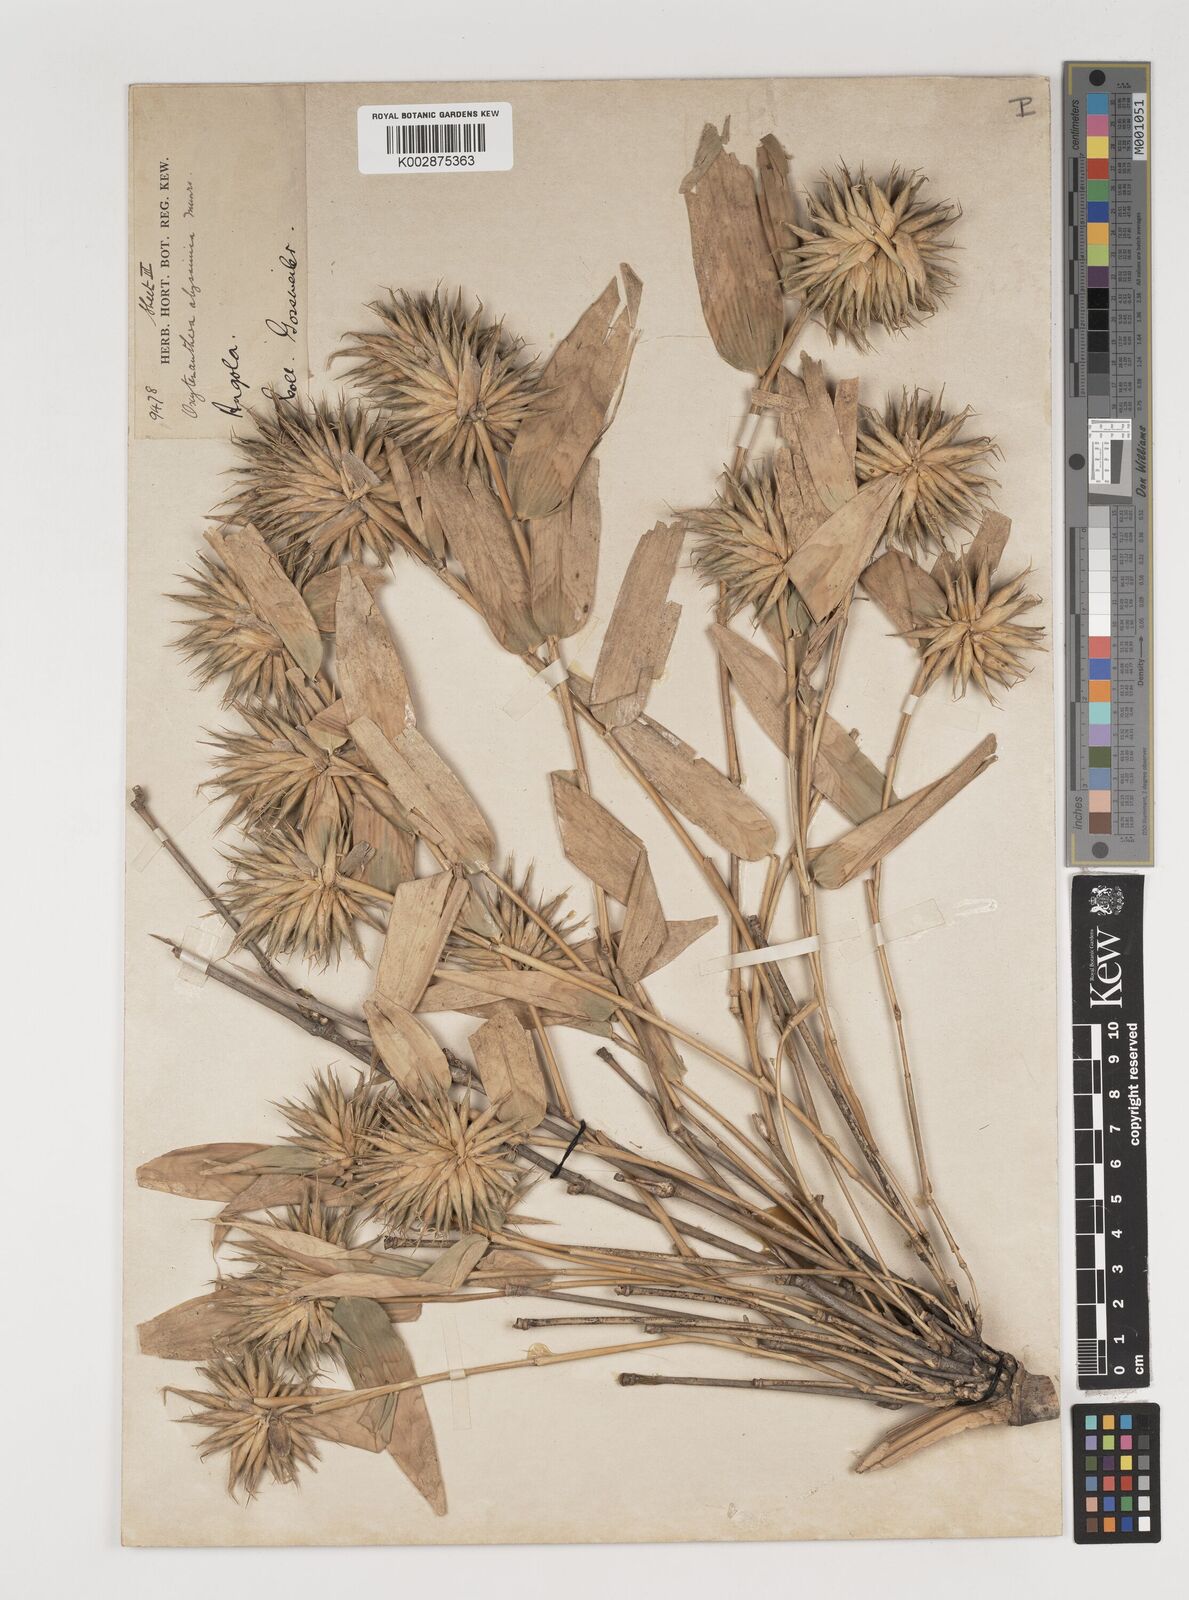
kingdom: Plantae
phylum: Tracheophyta
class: Liliopsida
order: Poales
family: Poaceae
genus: Oxytenanthera
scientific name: Oxytenanthera abyssinica
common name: Wine bamboo
